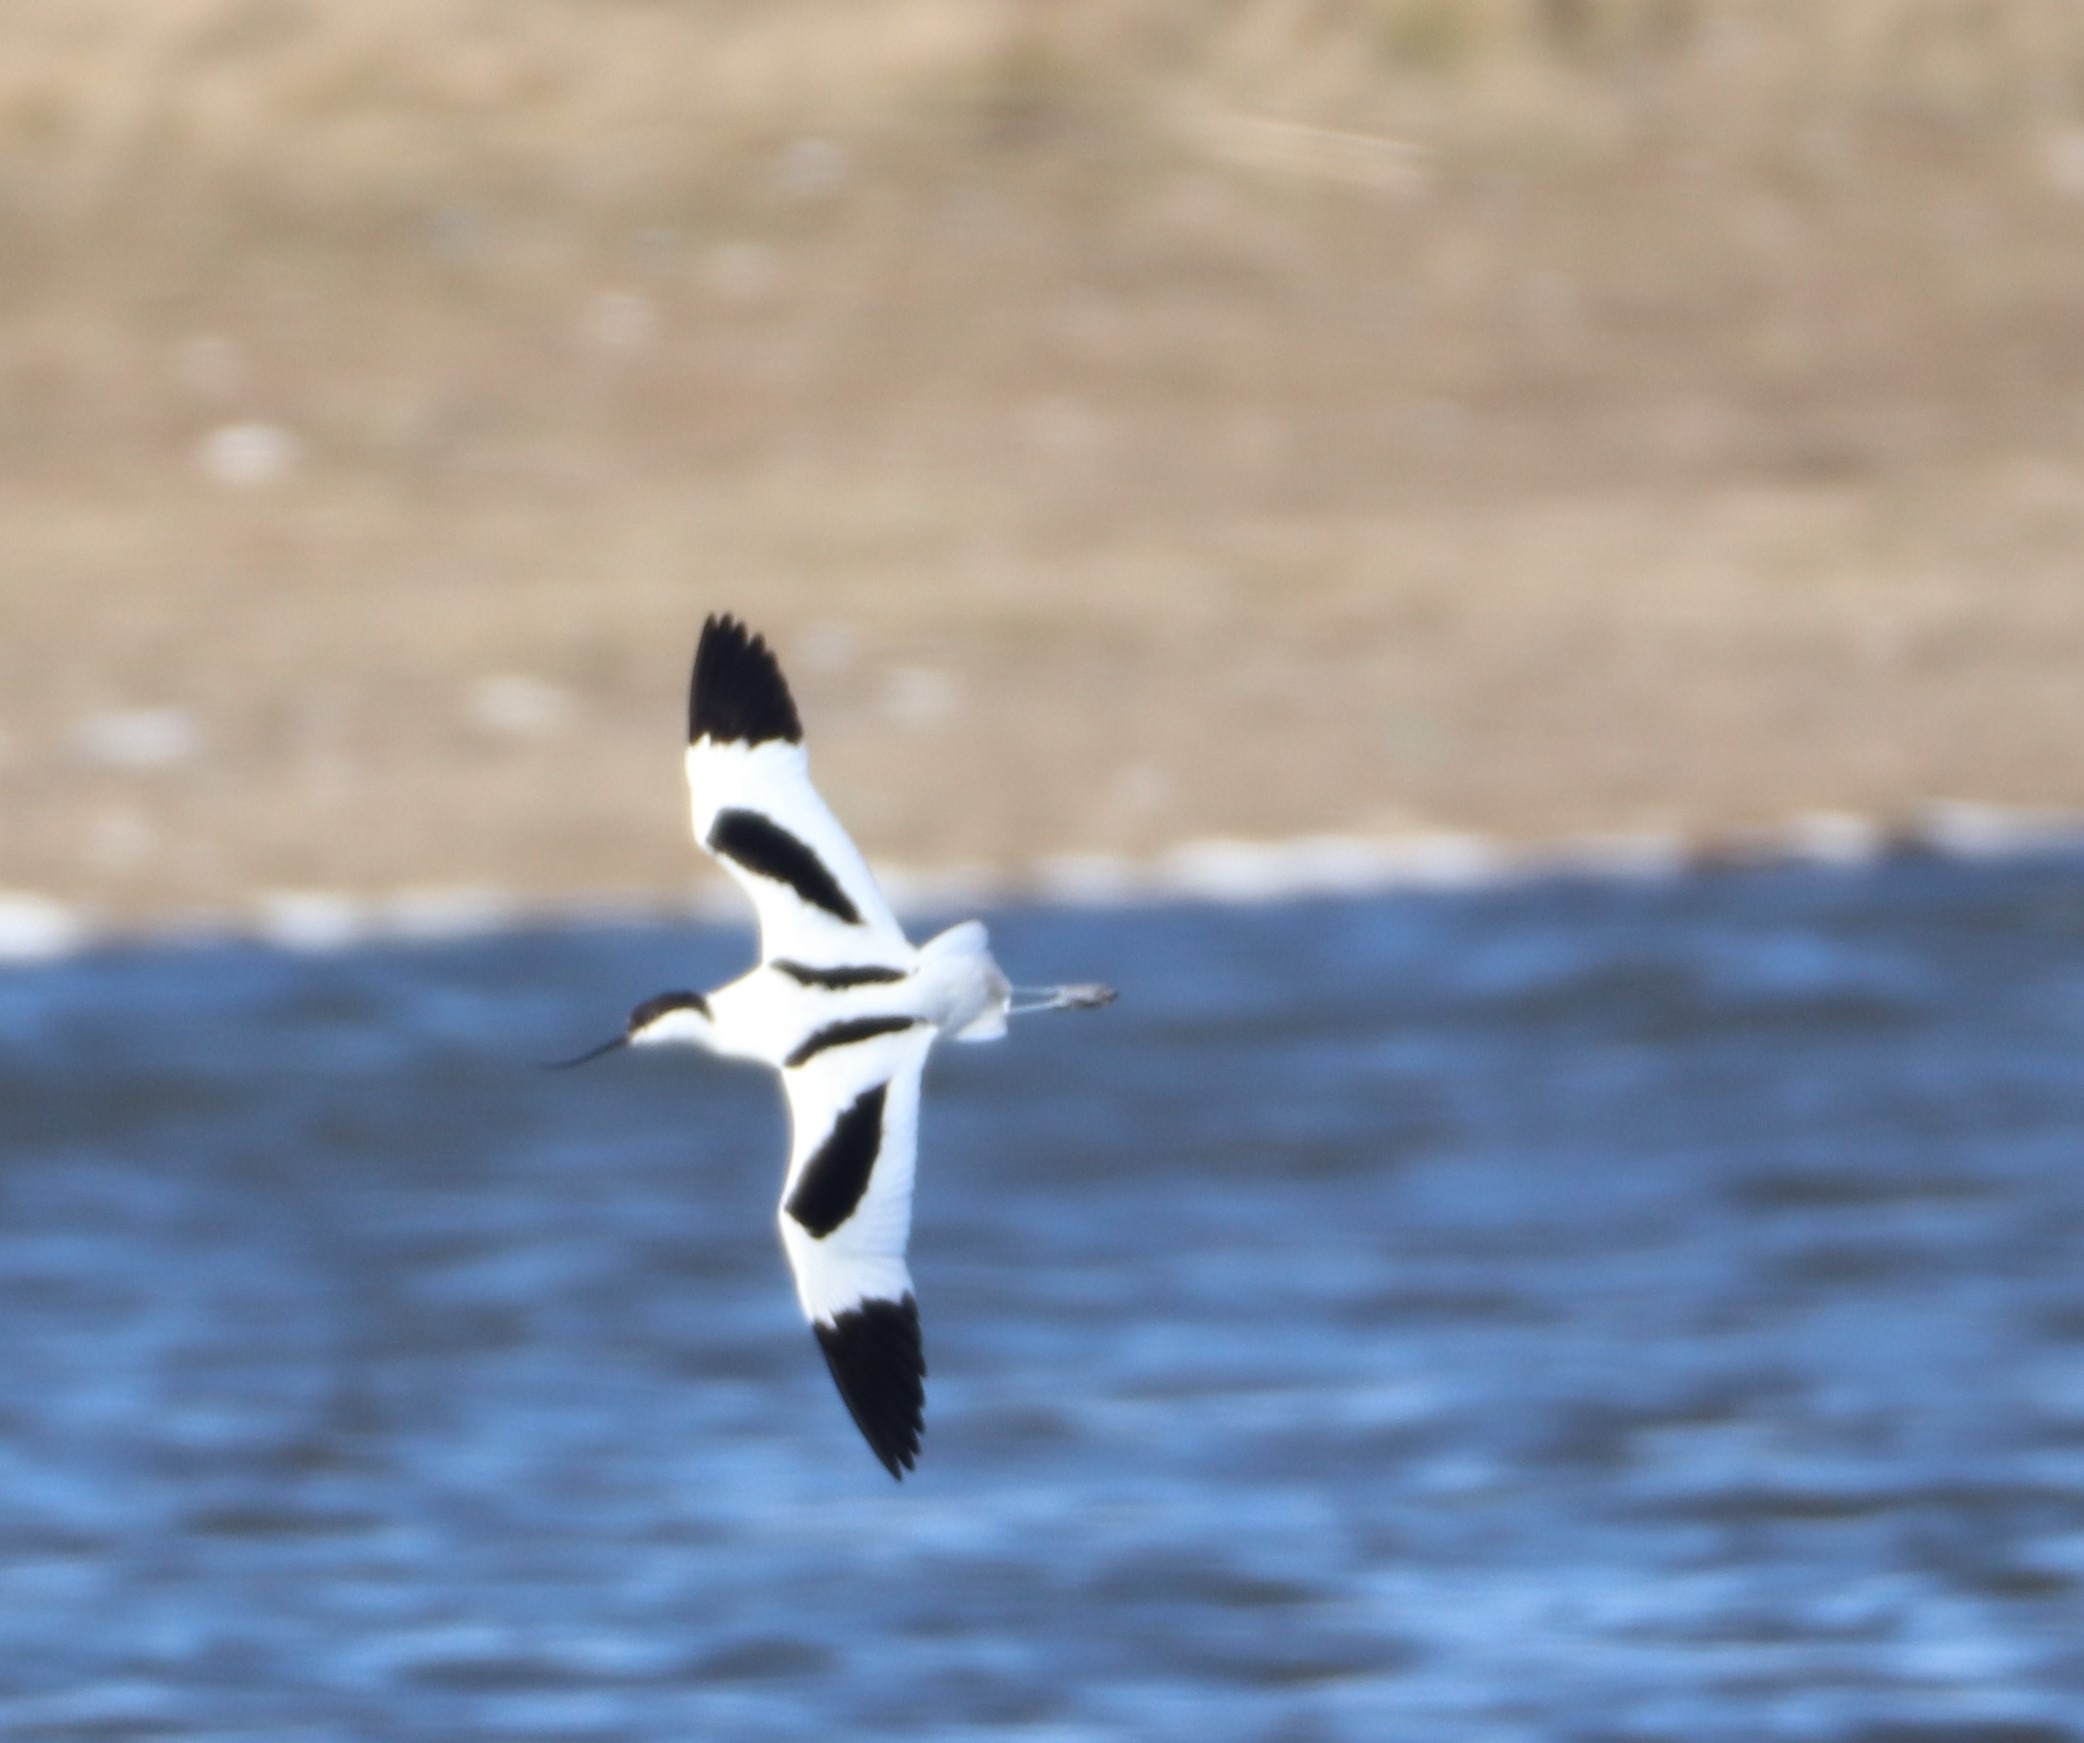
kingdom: Animalia
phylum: Chordata
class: Aves
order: Charadriiformes
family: Recurvirostridae
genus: Recurvirostra
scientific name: Recurvirostra avosetta
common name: Klyde
